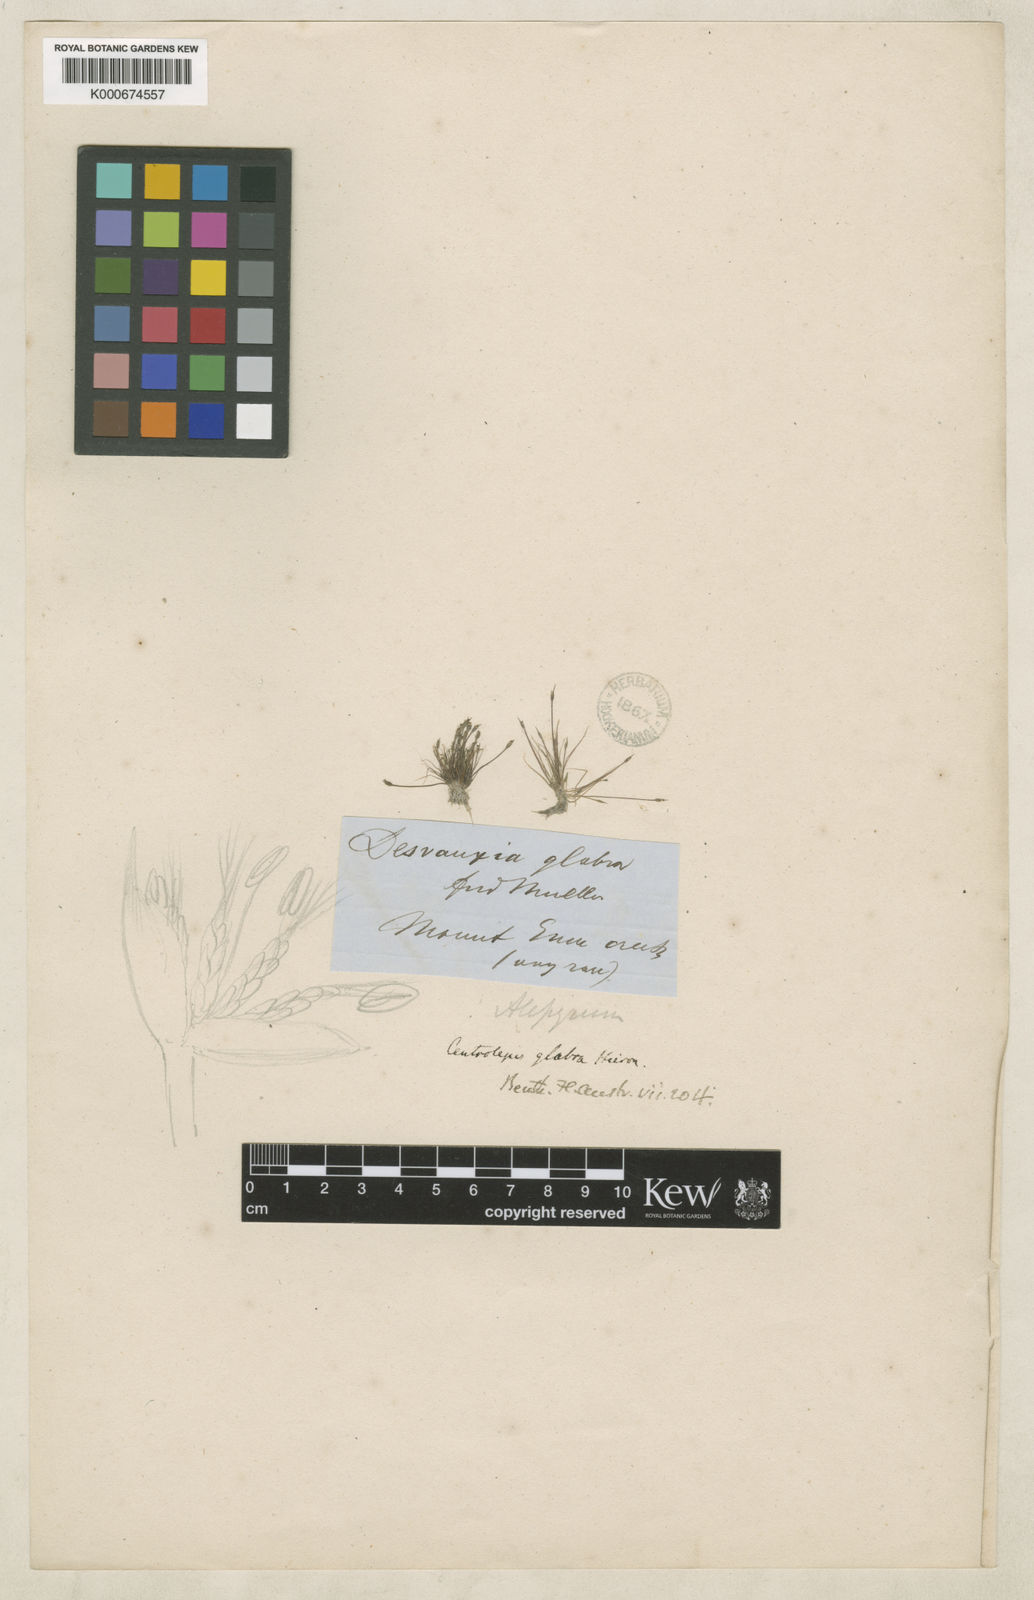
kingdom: Plantae
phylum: Tracheophyta
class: Liliopsida
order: Poales
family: Restionaceae
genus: Centrolepis
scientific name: Centrolepis glabra
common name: Smooth centrolepis
